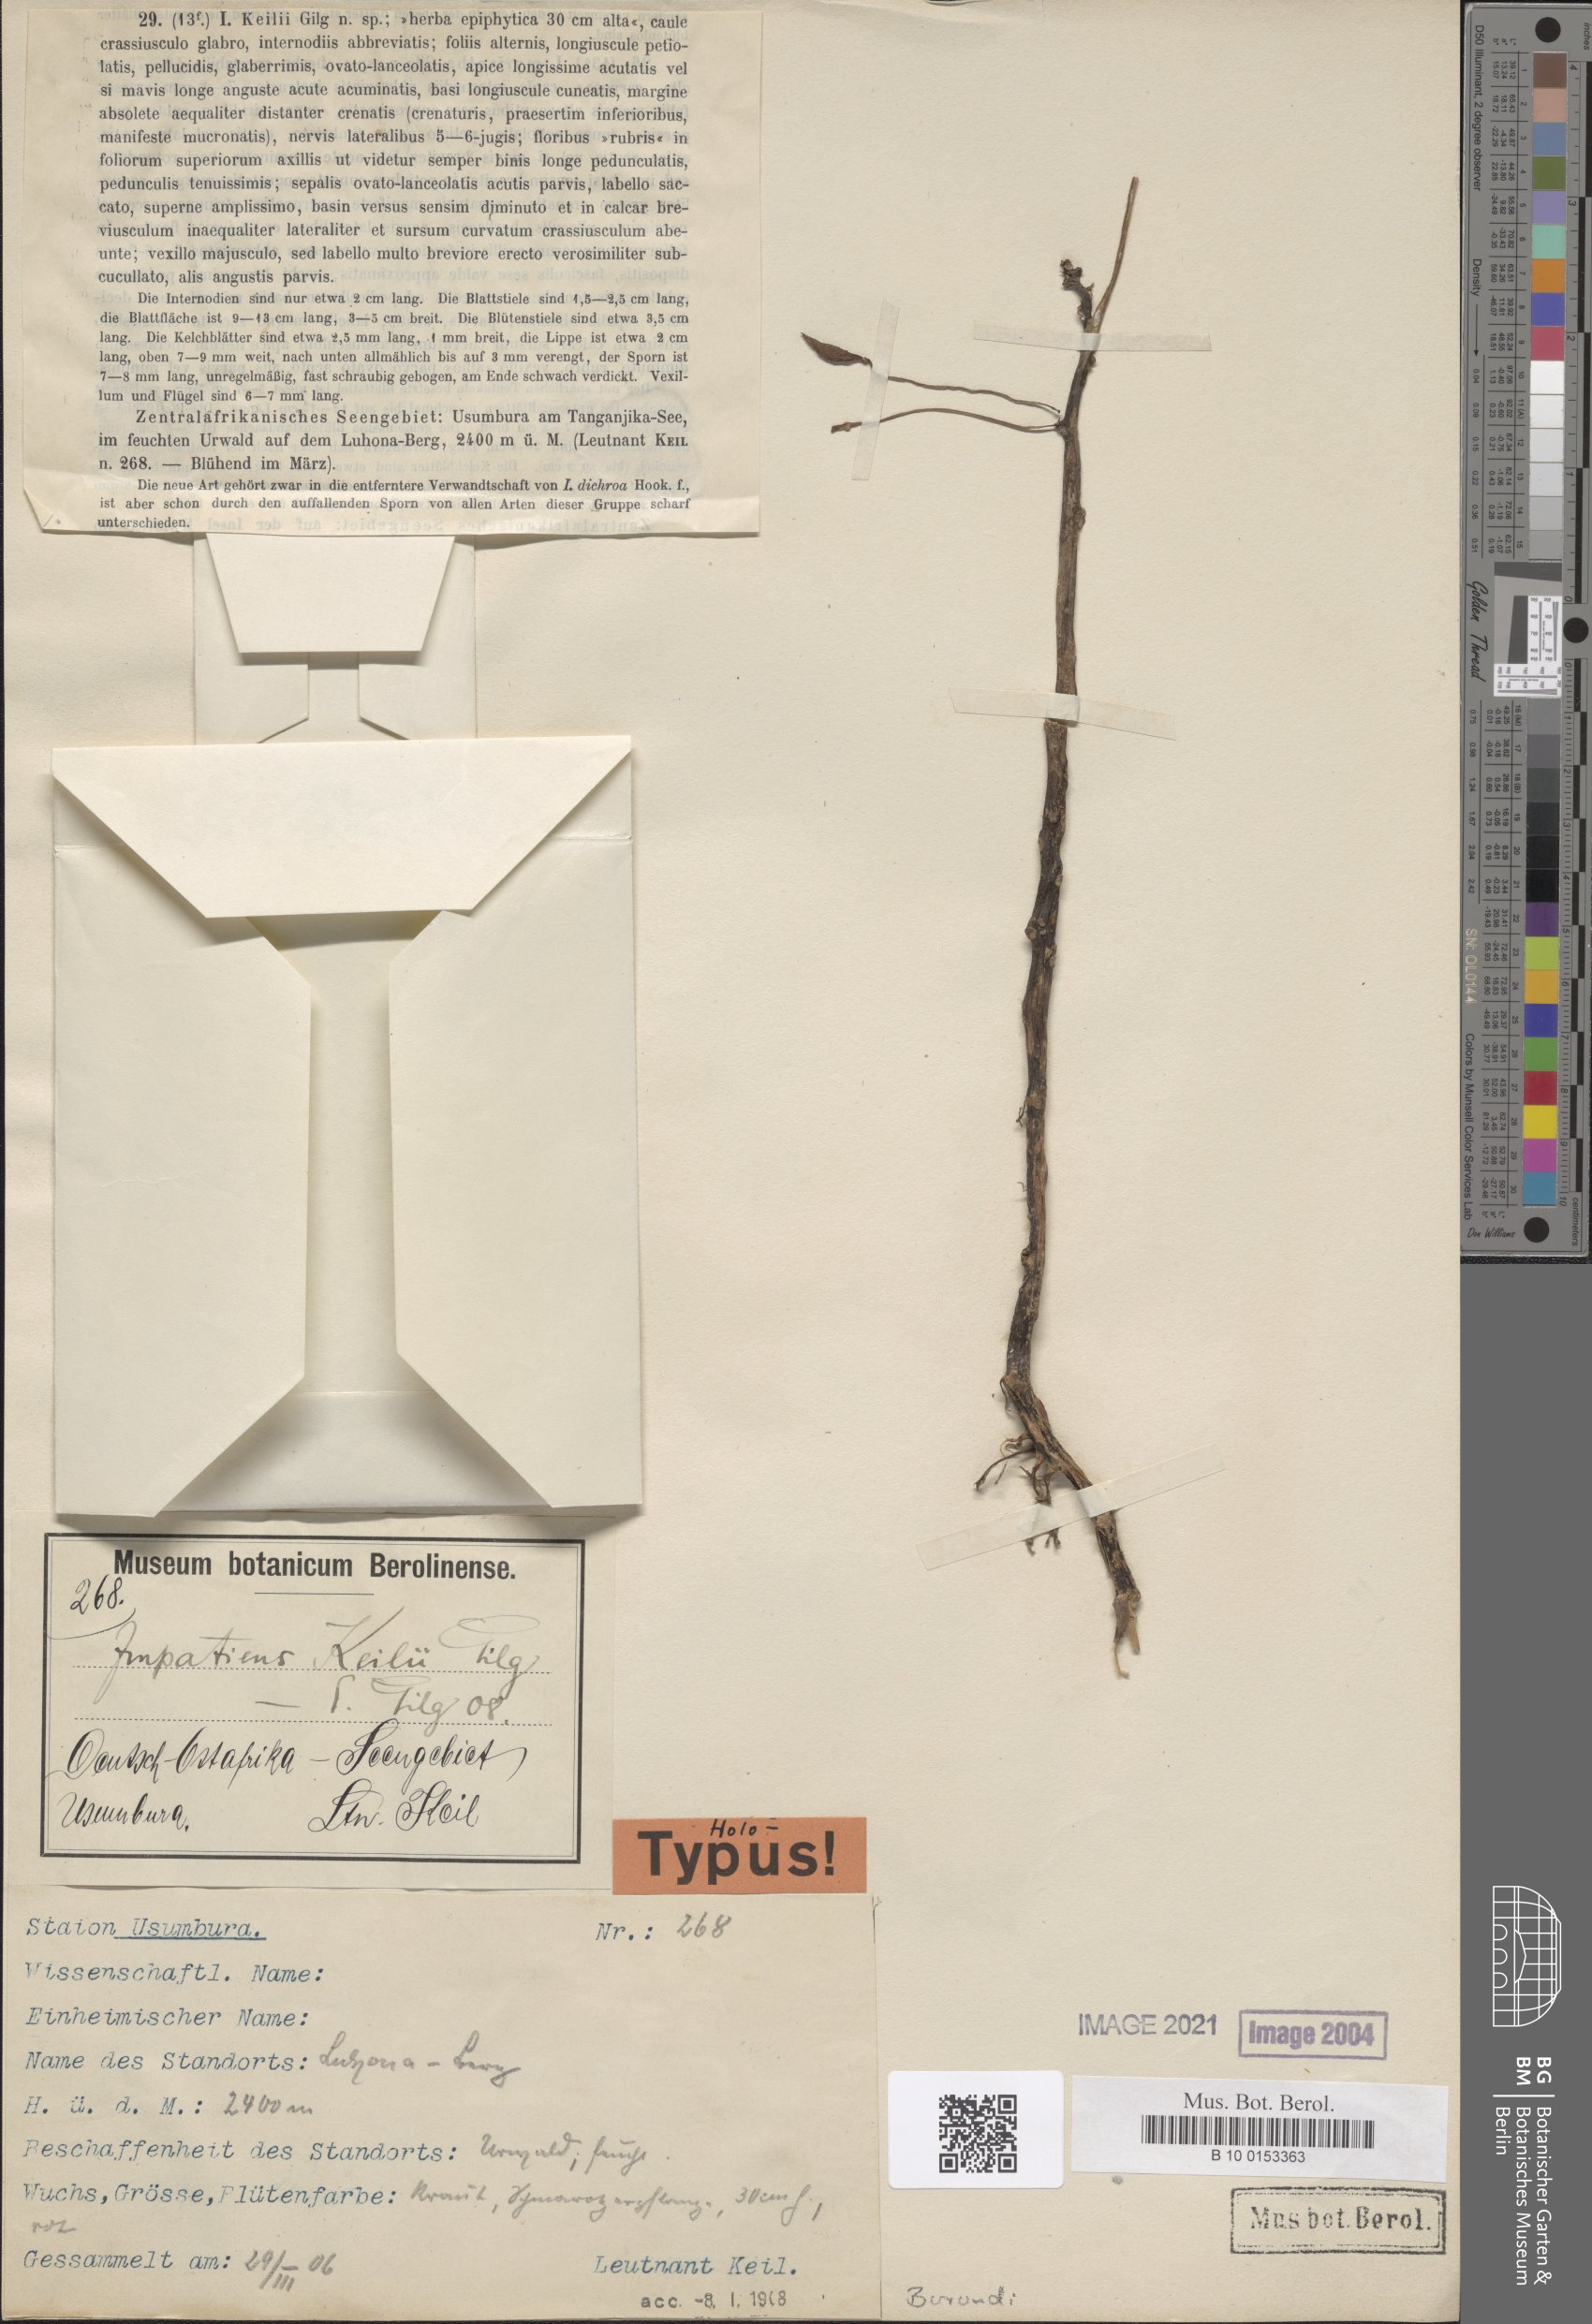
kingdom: Plantae
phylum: Tracheophyta
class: Magnoliopsida
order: Ericales
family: Balsaminaceae
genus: Impatiens
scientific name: Impatiens keilii
